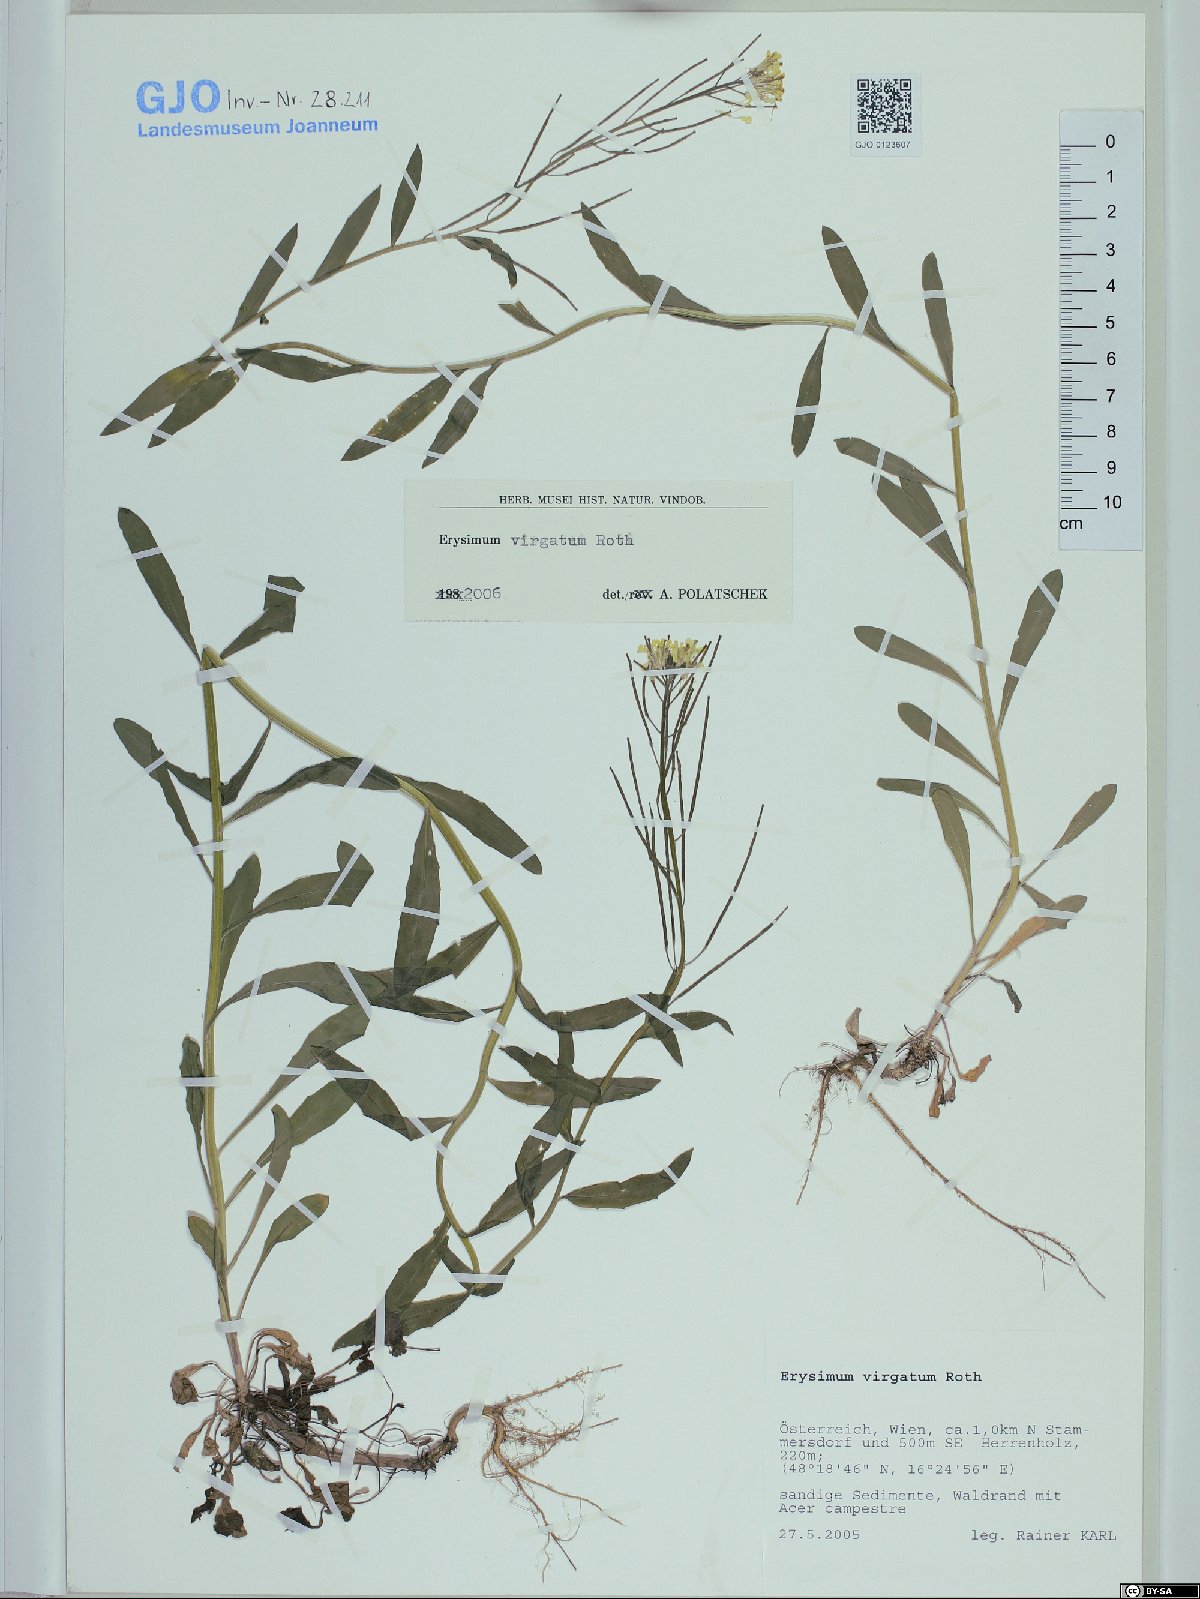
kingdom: Plantae
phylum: Tracheophyta
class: Magnoliopsida
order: Brassicales
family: Brassicaceae
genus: Erysimum
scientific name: Erysimum virgatum
